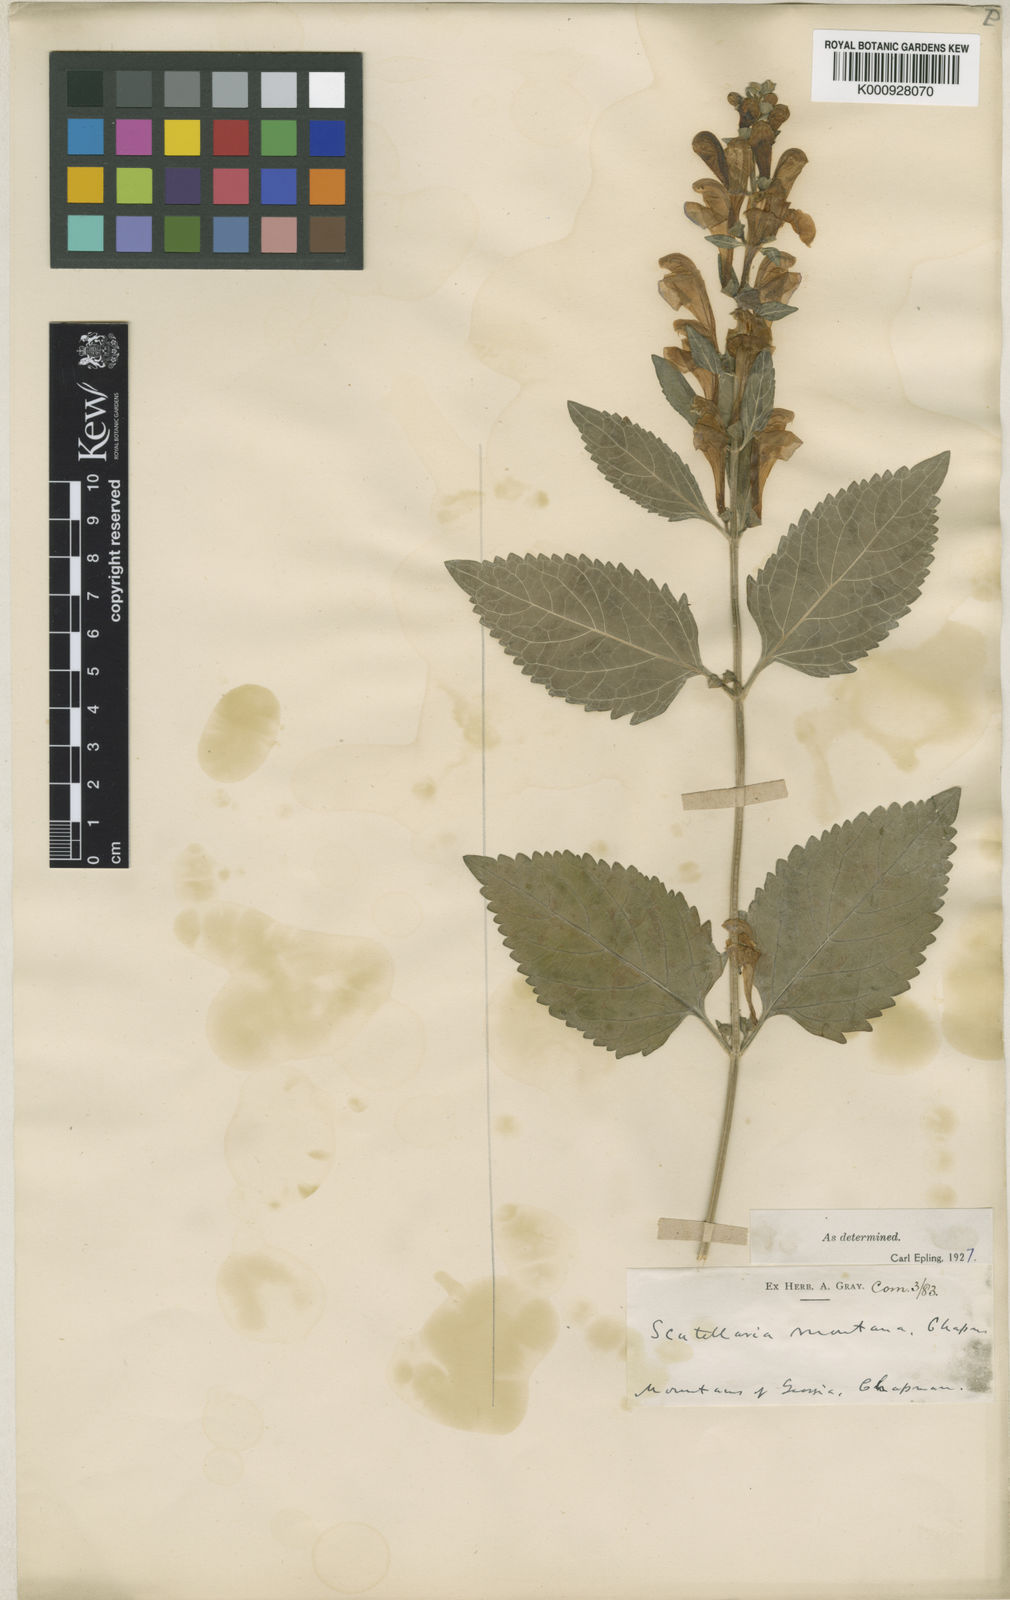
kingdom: Plantae
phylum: Tracheophyta
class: Magnoliopsida
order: Lamiales
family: Lamiaceae
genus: Scutellaria
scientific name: Scutellaria montana
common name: Large-flower skullcap
